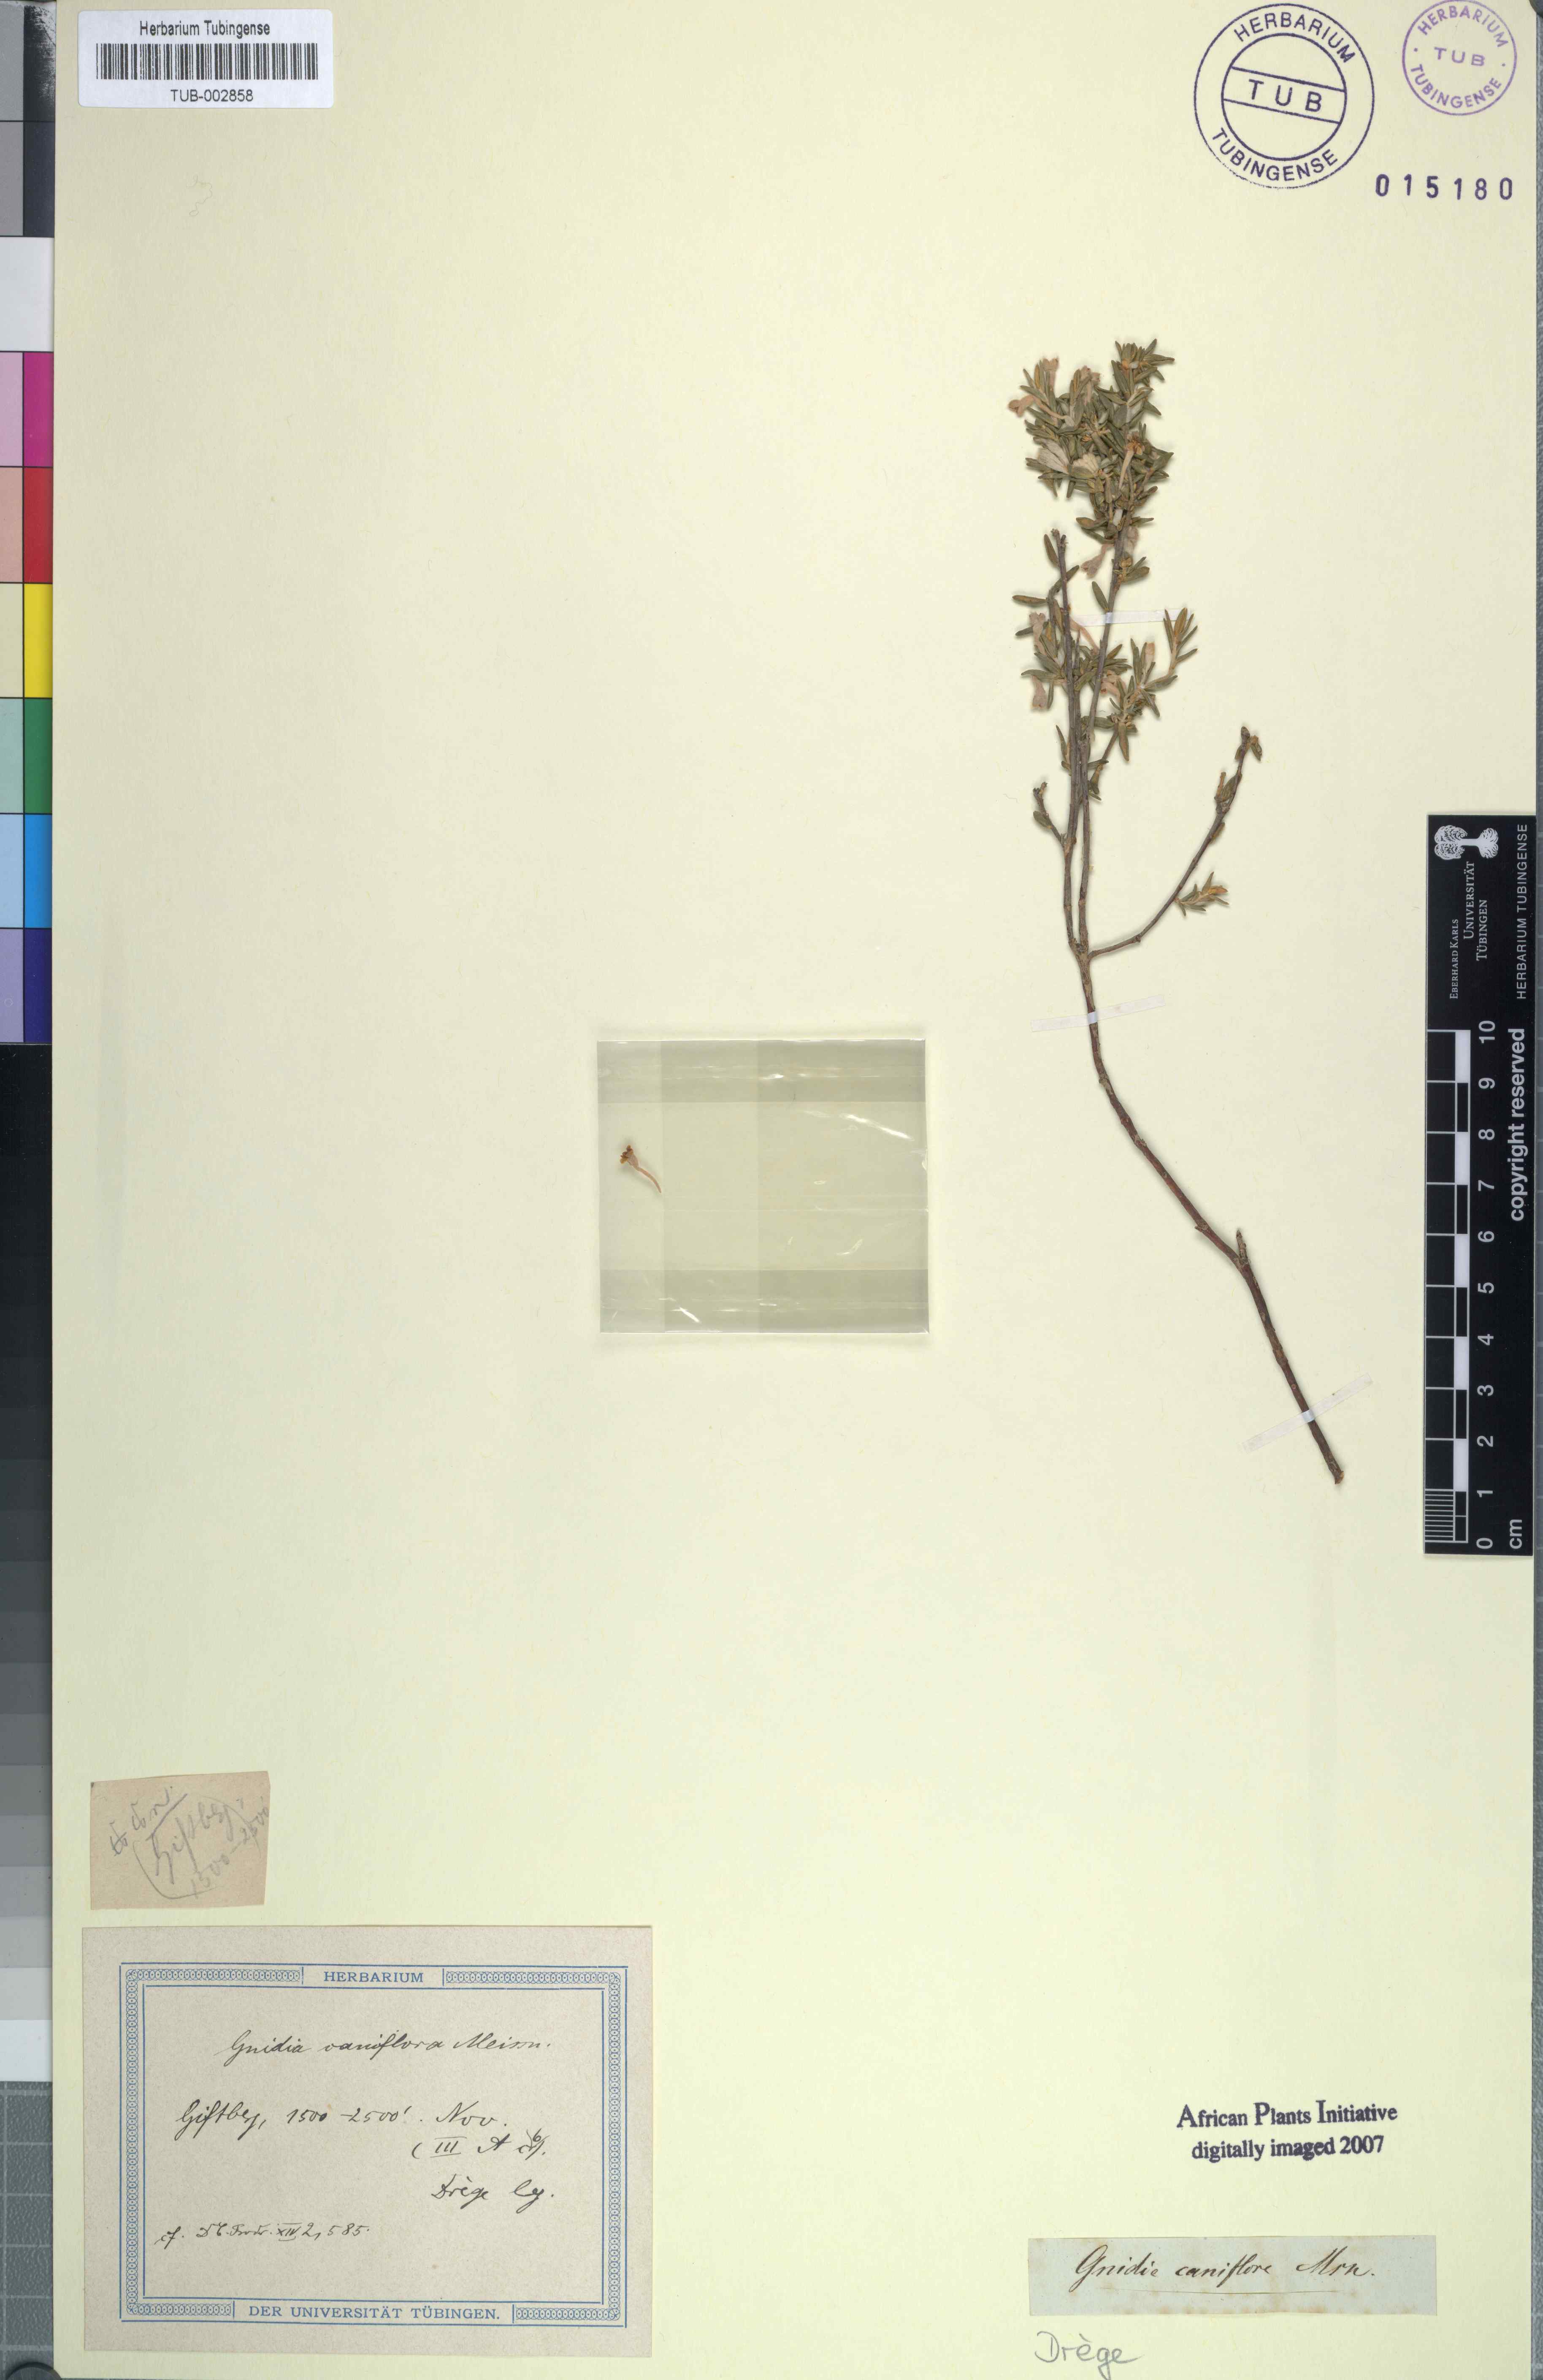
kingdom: Plantae
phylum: Tracheophyta
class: Magnoliopsida
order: Malvales
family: Thymelaeaceae
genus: Gnidia
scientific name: Gnidia caniflora
